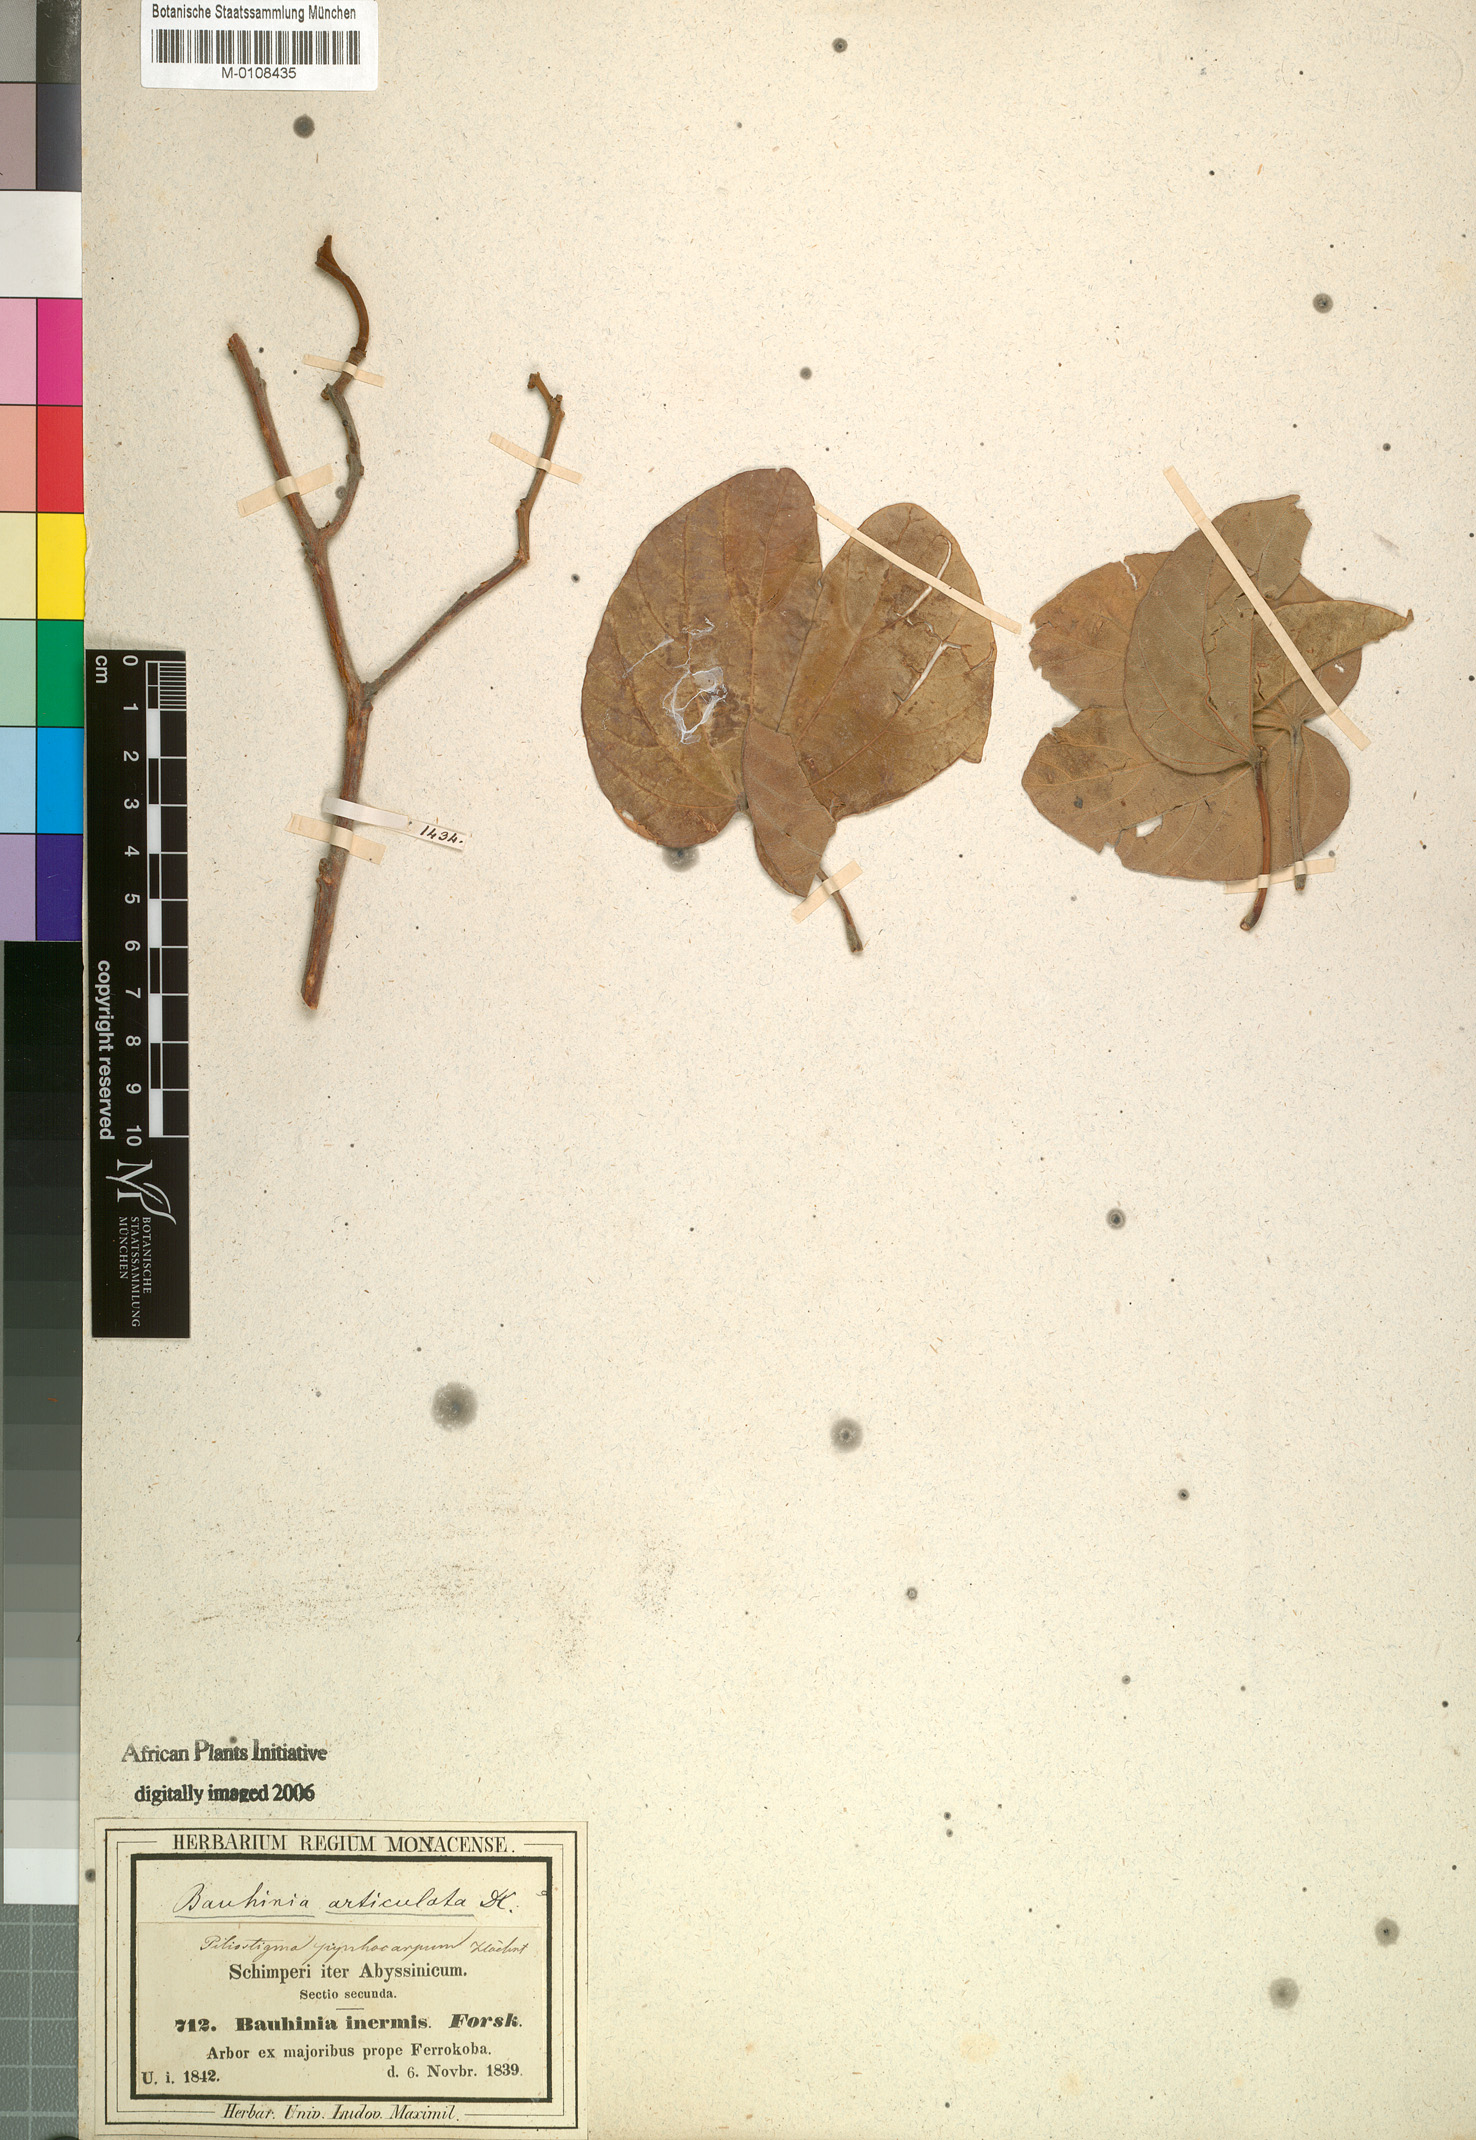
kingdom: Plantae
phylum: Tracheophyta
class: Magnoliopsida
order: Fabales
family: Fabaceae
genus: Piliostigma
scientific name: Piliostigma thonningii
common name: Kao
